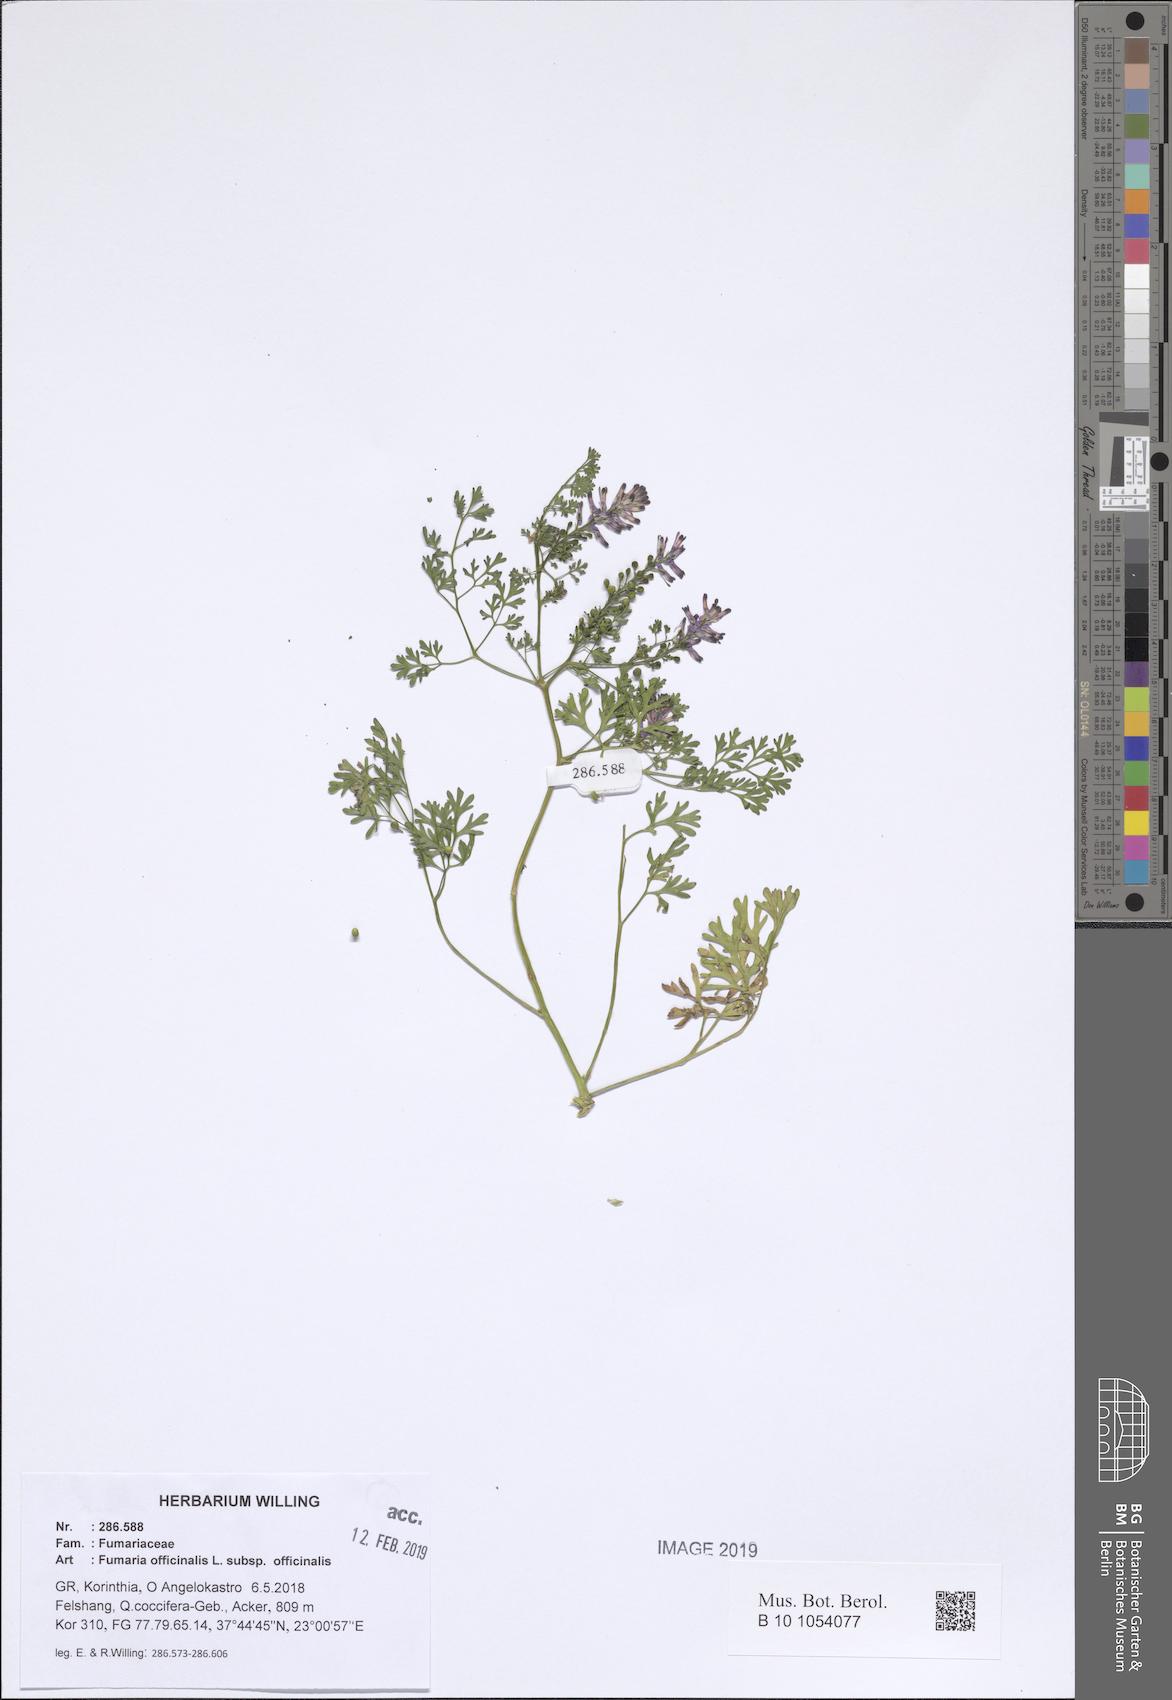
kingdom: Plantae
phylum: Tracheophyta
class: Magnoliopsida
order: Ranunculales
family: Papaveraceae
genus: Fumaria
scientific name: Fumaria officinalis
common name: Common fumitory
